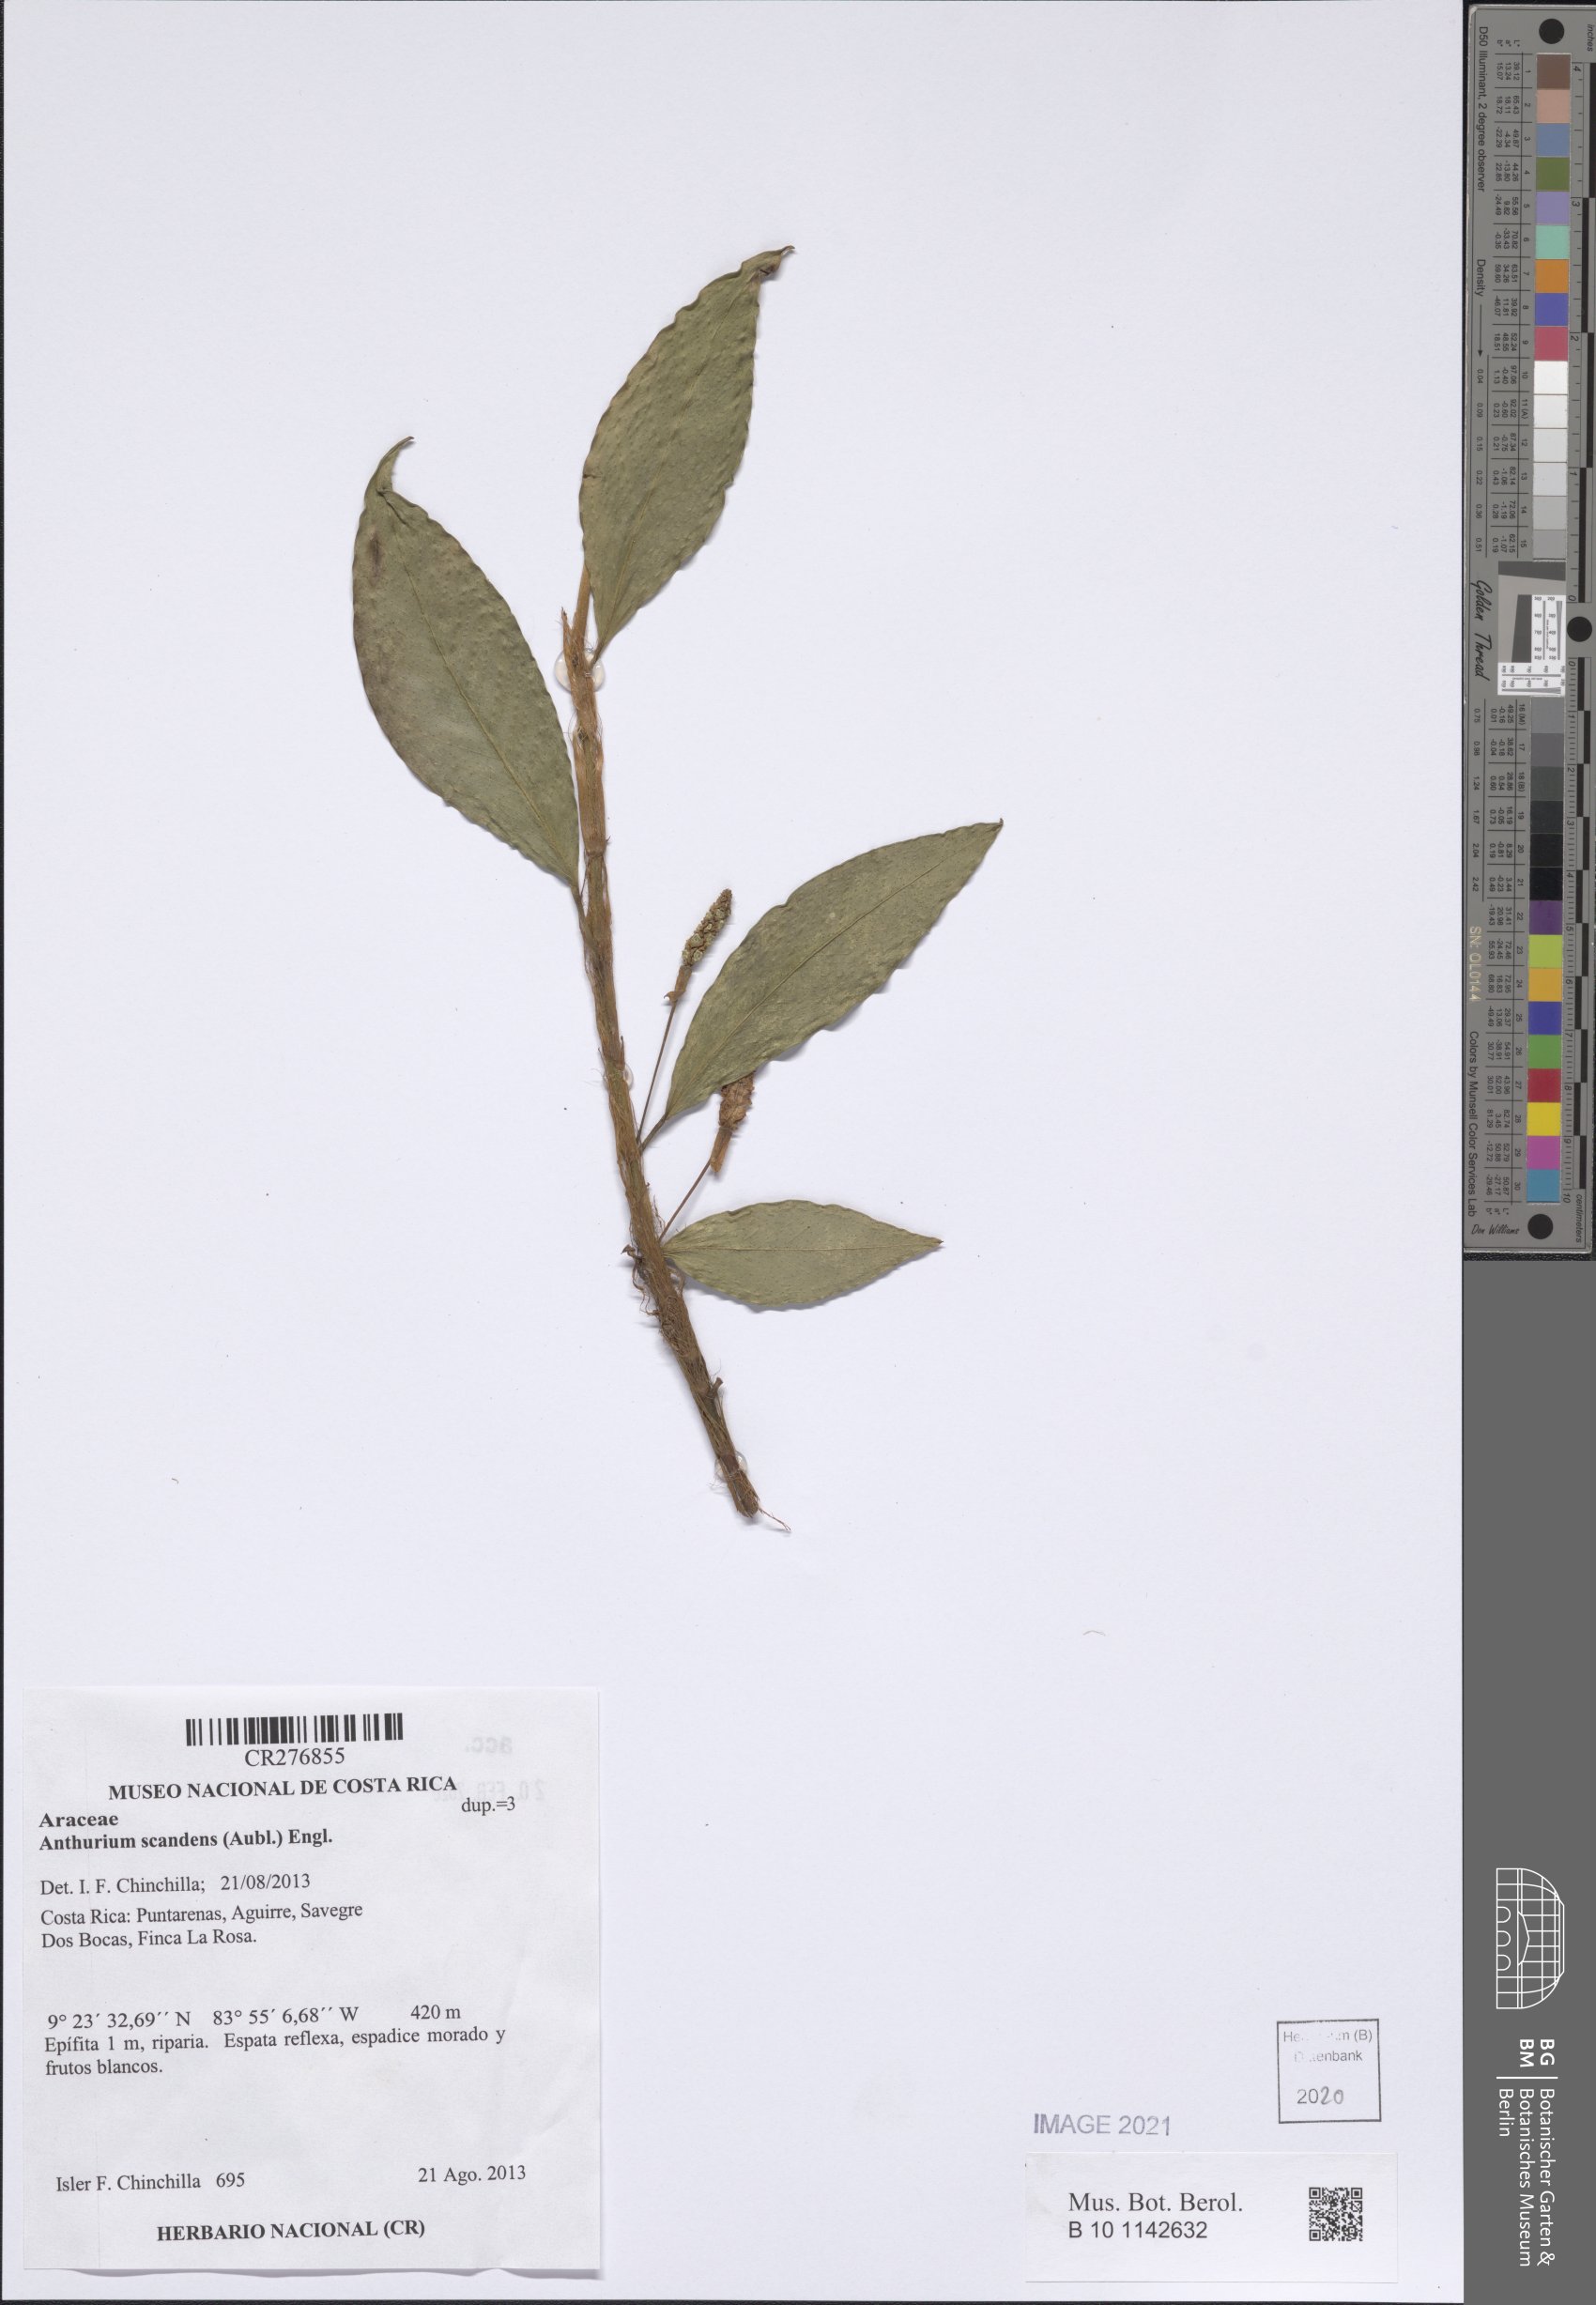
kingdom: Plantae
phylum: Tracheophyta
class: Liliopsida
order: Alismatales
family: Araceae
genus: Anthurium
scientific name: Anthurium scandens
